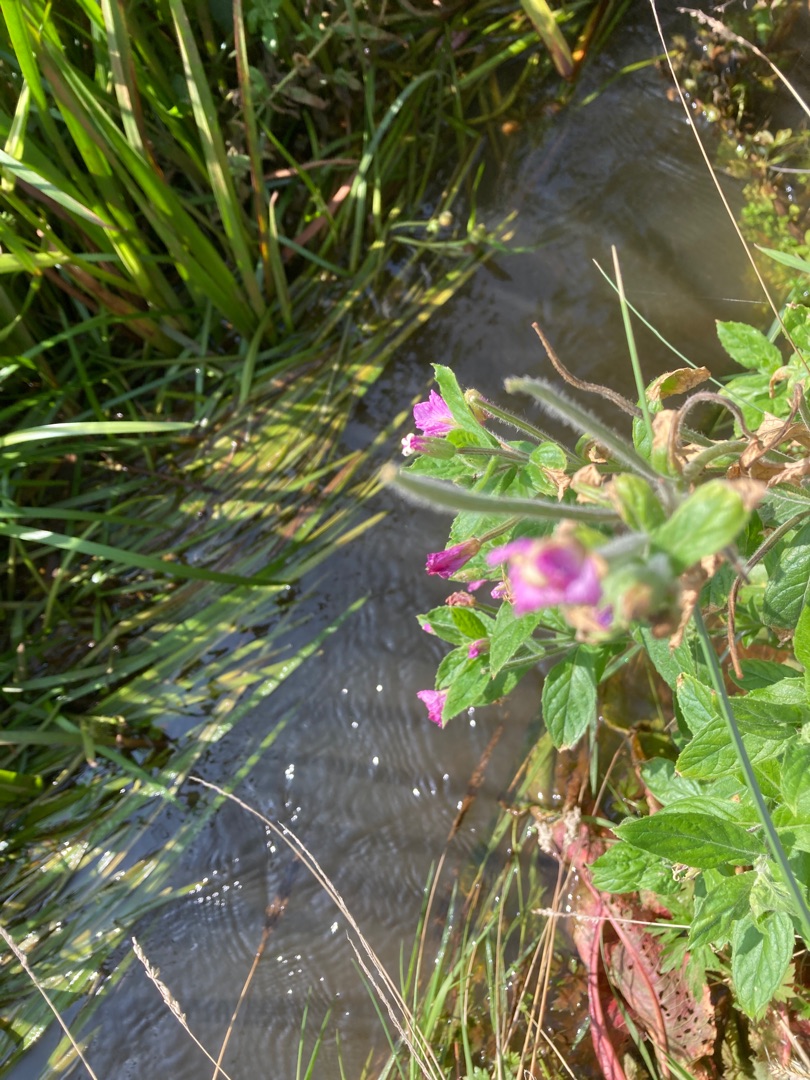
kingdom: Plantae
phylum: Tracheophyta
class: Magnoliopsida
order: Myrtales
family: Onagraceae
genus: Epilobium
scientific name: Epilobium hirsutum
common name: Lådden dueurt
